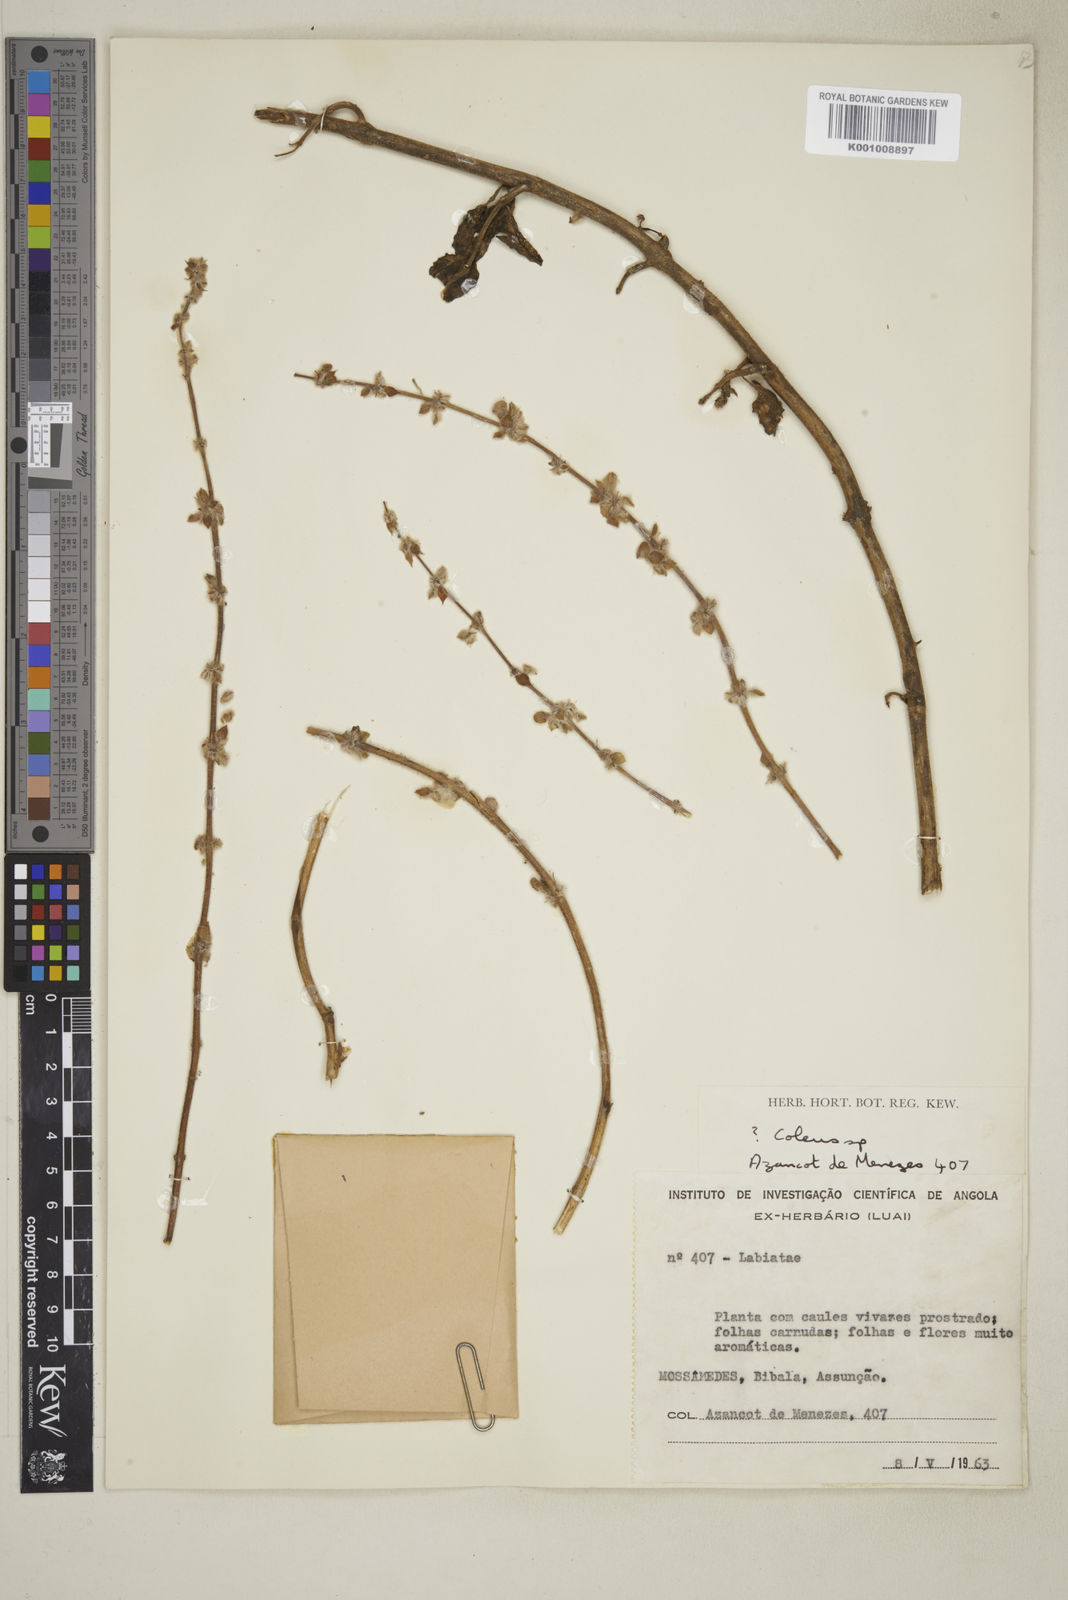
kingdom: Plantae
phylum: Tracheophyta
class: Magnoliopsida
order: Lamiales
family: Lamiaceae
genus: Coleus
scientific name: Coleus amboinicus
